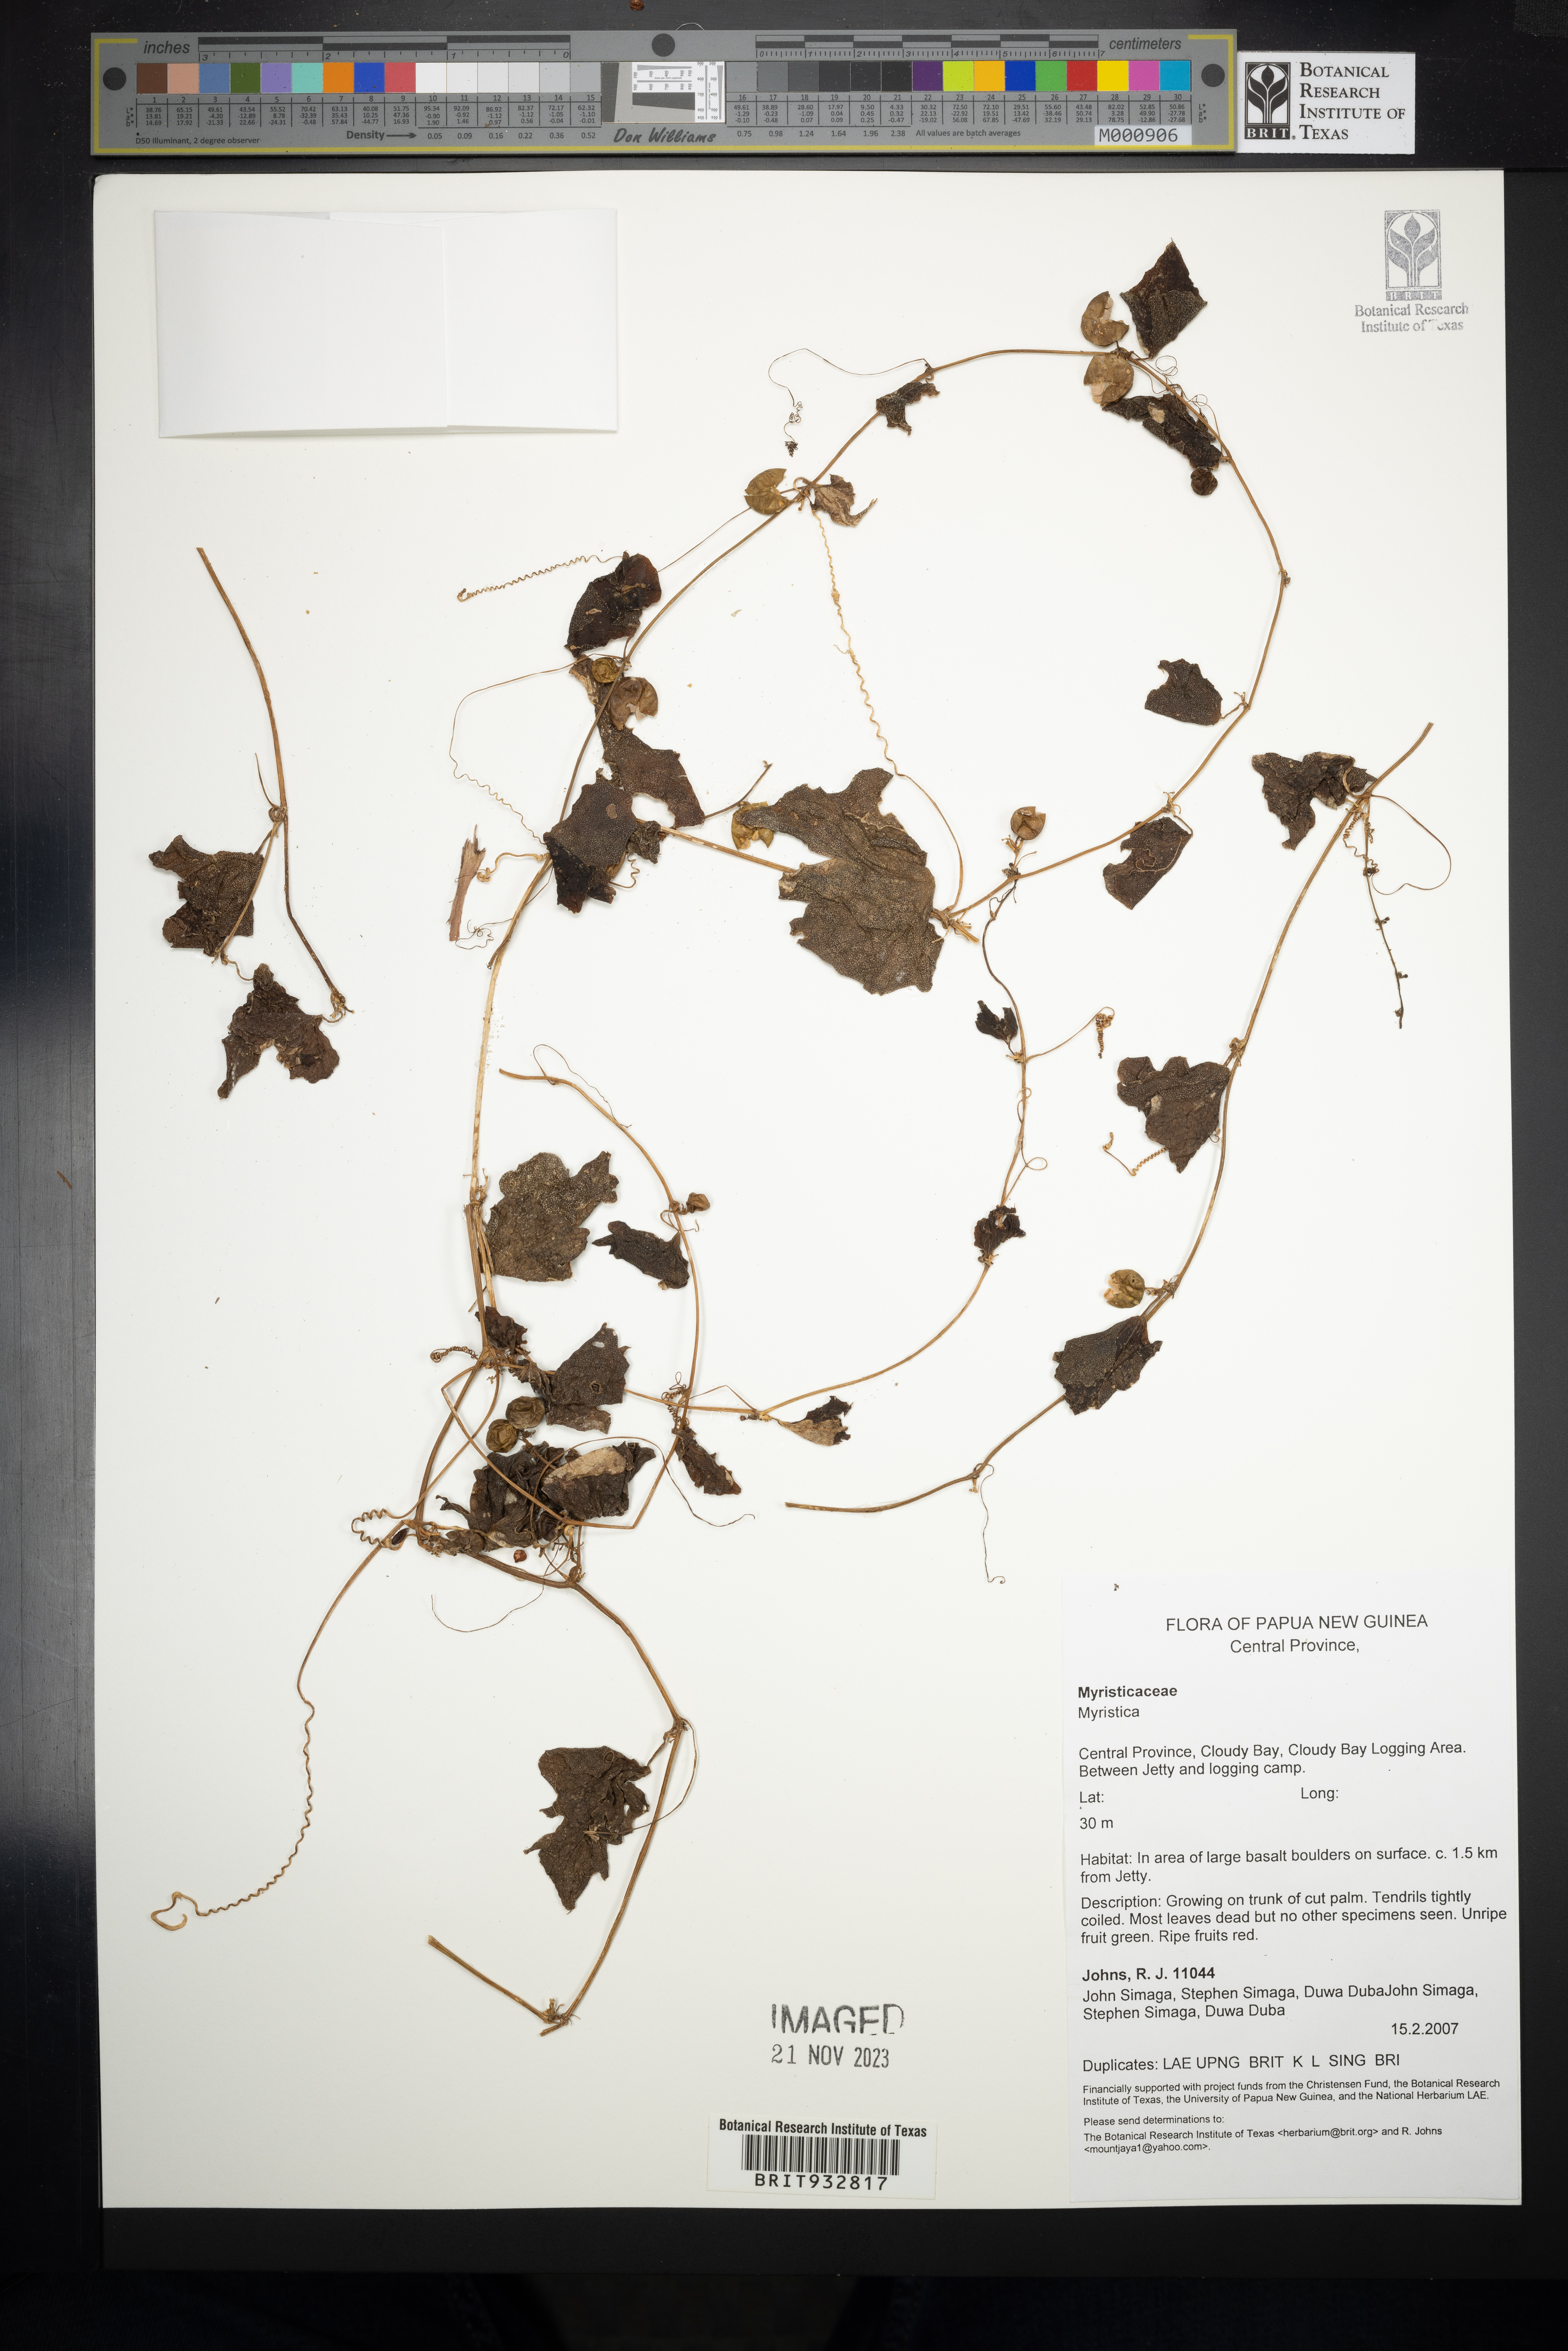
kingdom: Plantae
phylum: Tracheophyta
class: Magnoliopsida
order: Magnoliales
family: Myristicaceae
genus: Myristica
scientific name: Myristica
